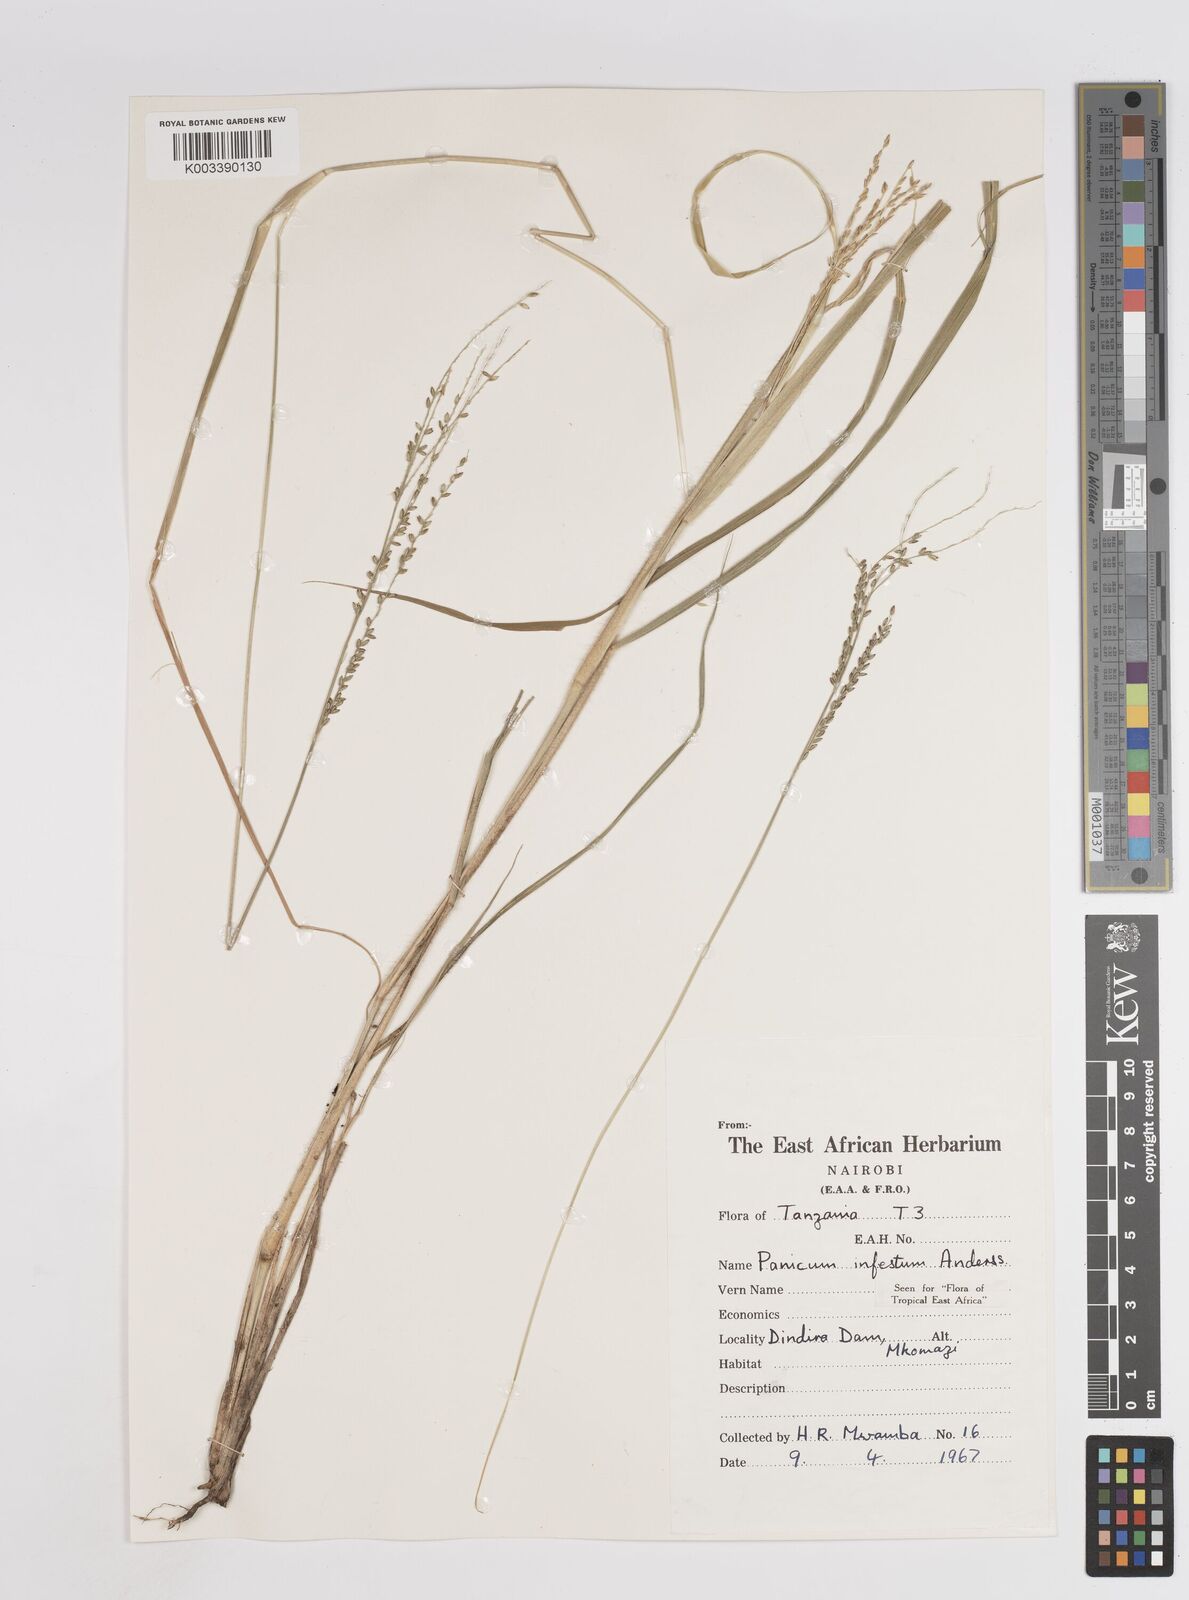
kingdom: Plantae
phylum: Tracheophyta
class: Liliopsida
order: Poales
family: Poaceae
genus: Megathyrsus
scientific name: Megathyrsus infestus
